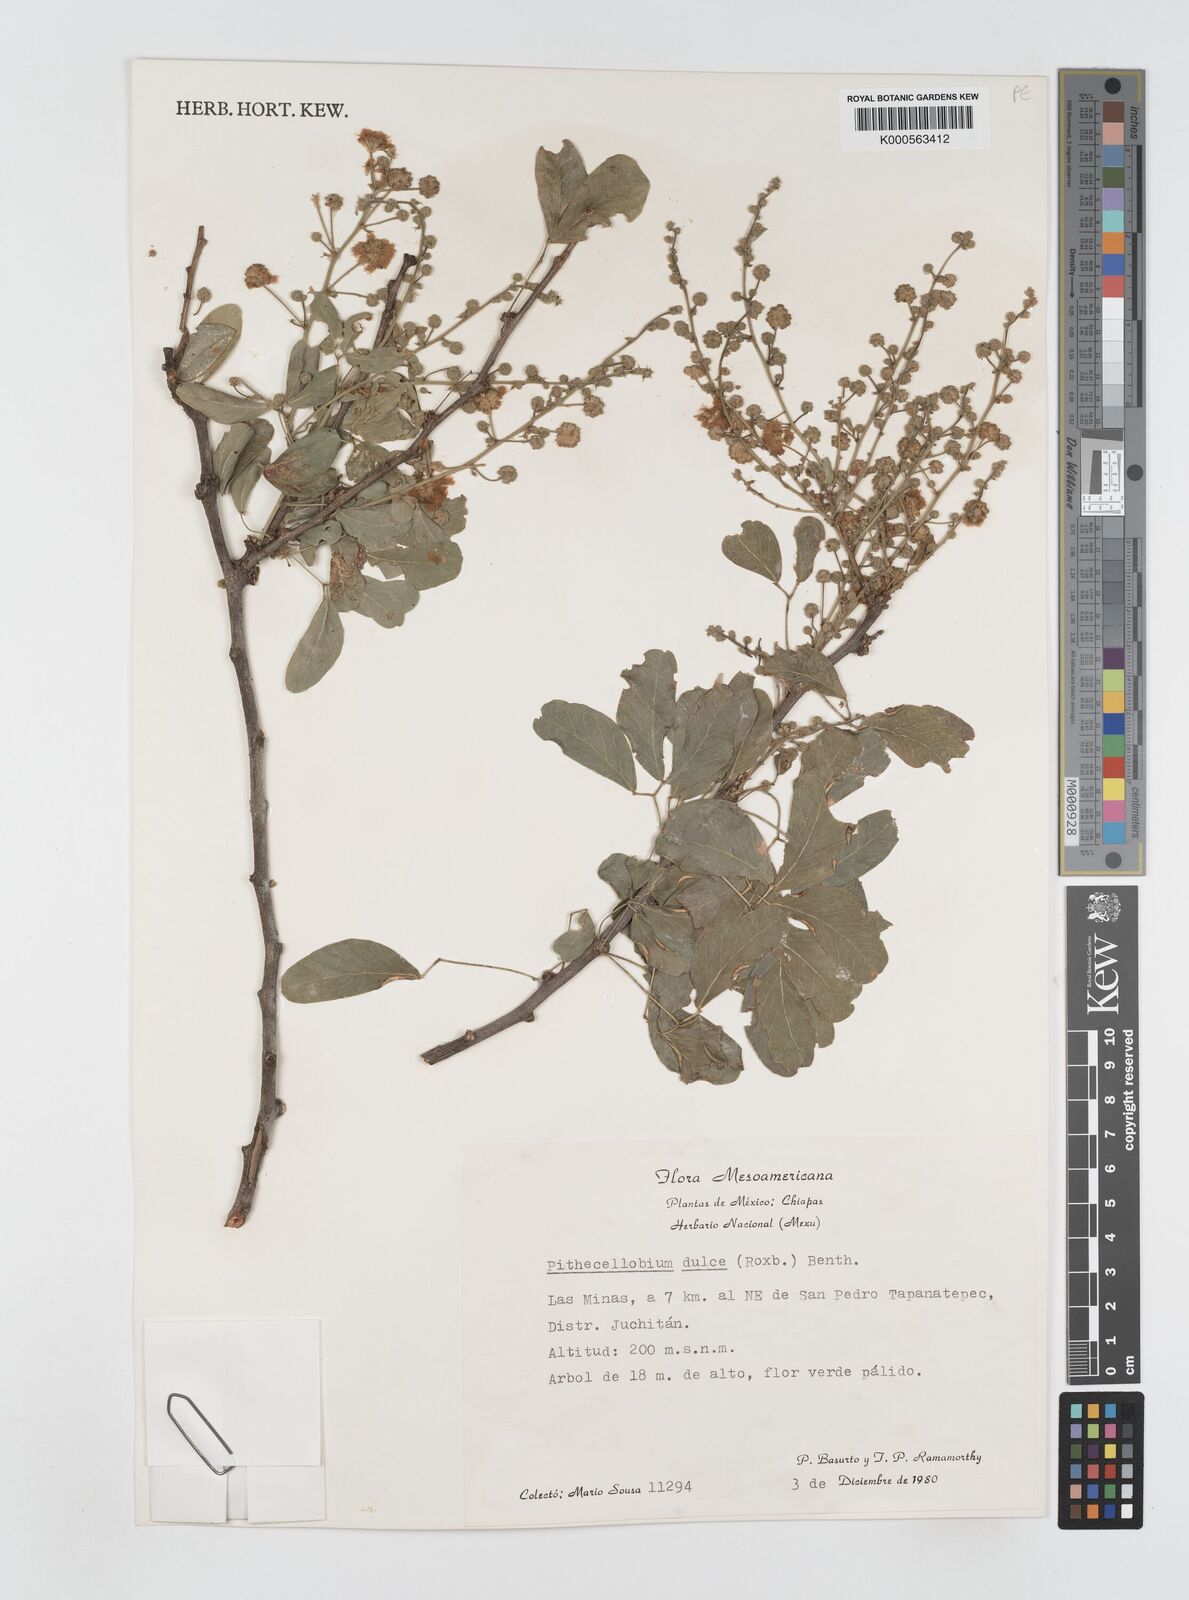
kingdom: Plantae
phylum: Tracheophyta
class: Magnoliopsida
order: Fabales
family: Fabaceae
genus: Pithecellobium
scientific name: Pithecellobium dulce
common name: Monkeypod
